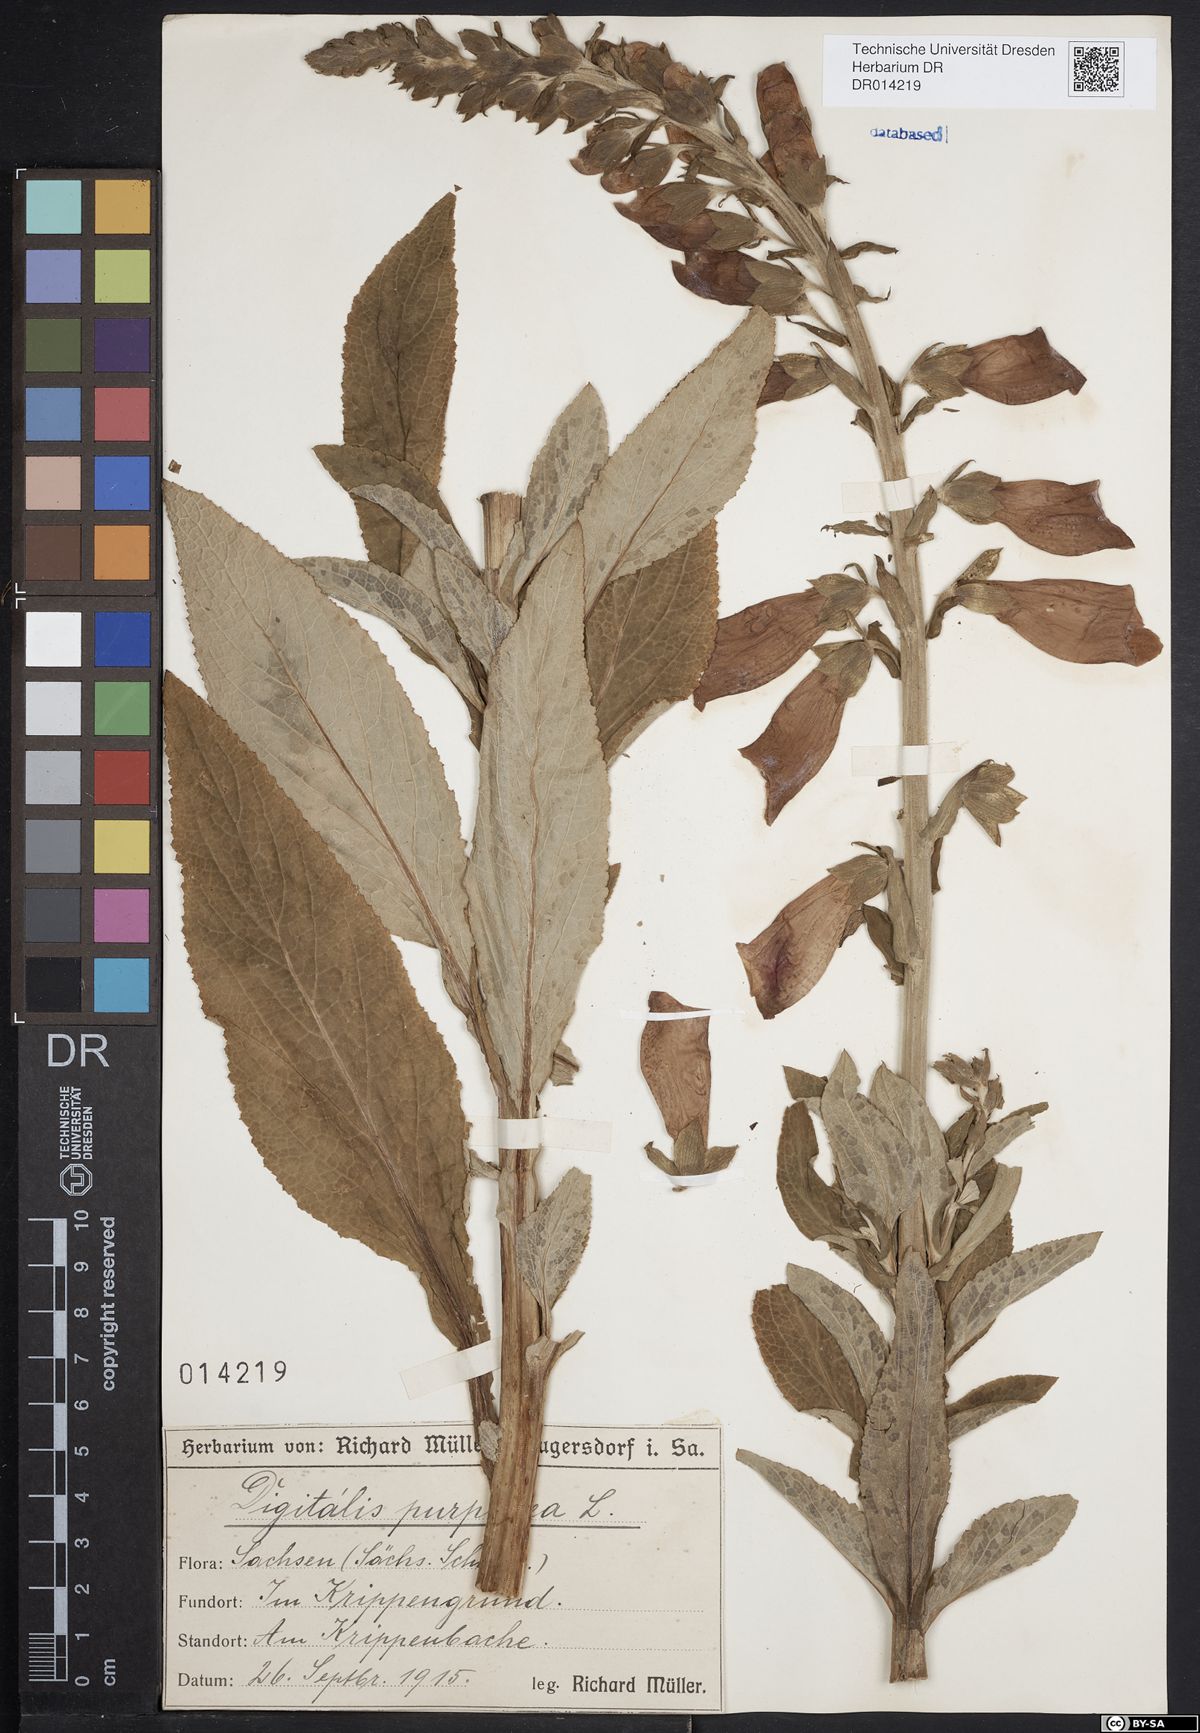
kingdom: Plantae
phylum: Tracheophyta
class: Magnoliopsida
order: Lamiales
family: Plantaginaceae
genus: Digitalis
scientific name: Digitalis purpurea
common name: Foxglove
